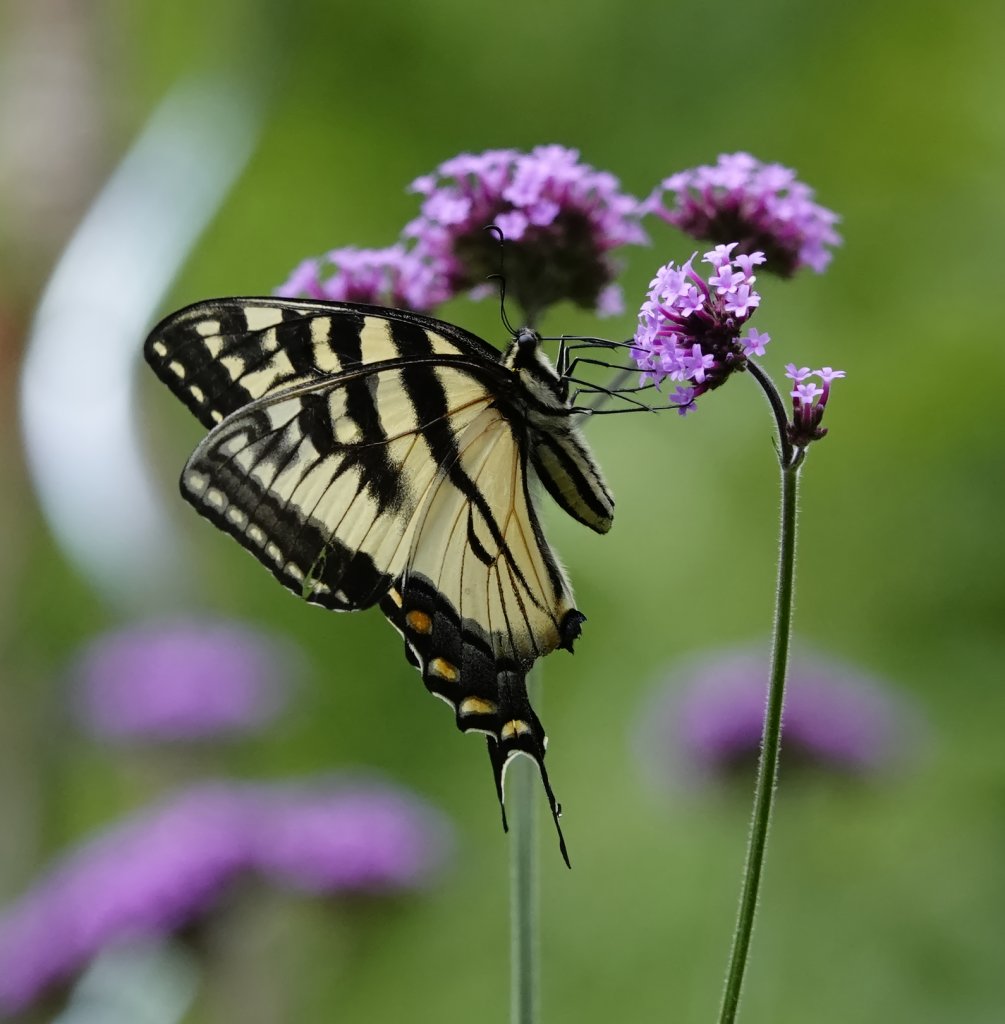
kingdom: Animalia
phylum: Arthropoda
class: Insecta
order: Lepidoptera
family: Papilionidae
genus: Papilio
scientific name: Papilio
